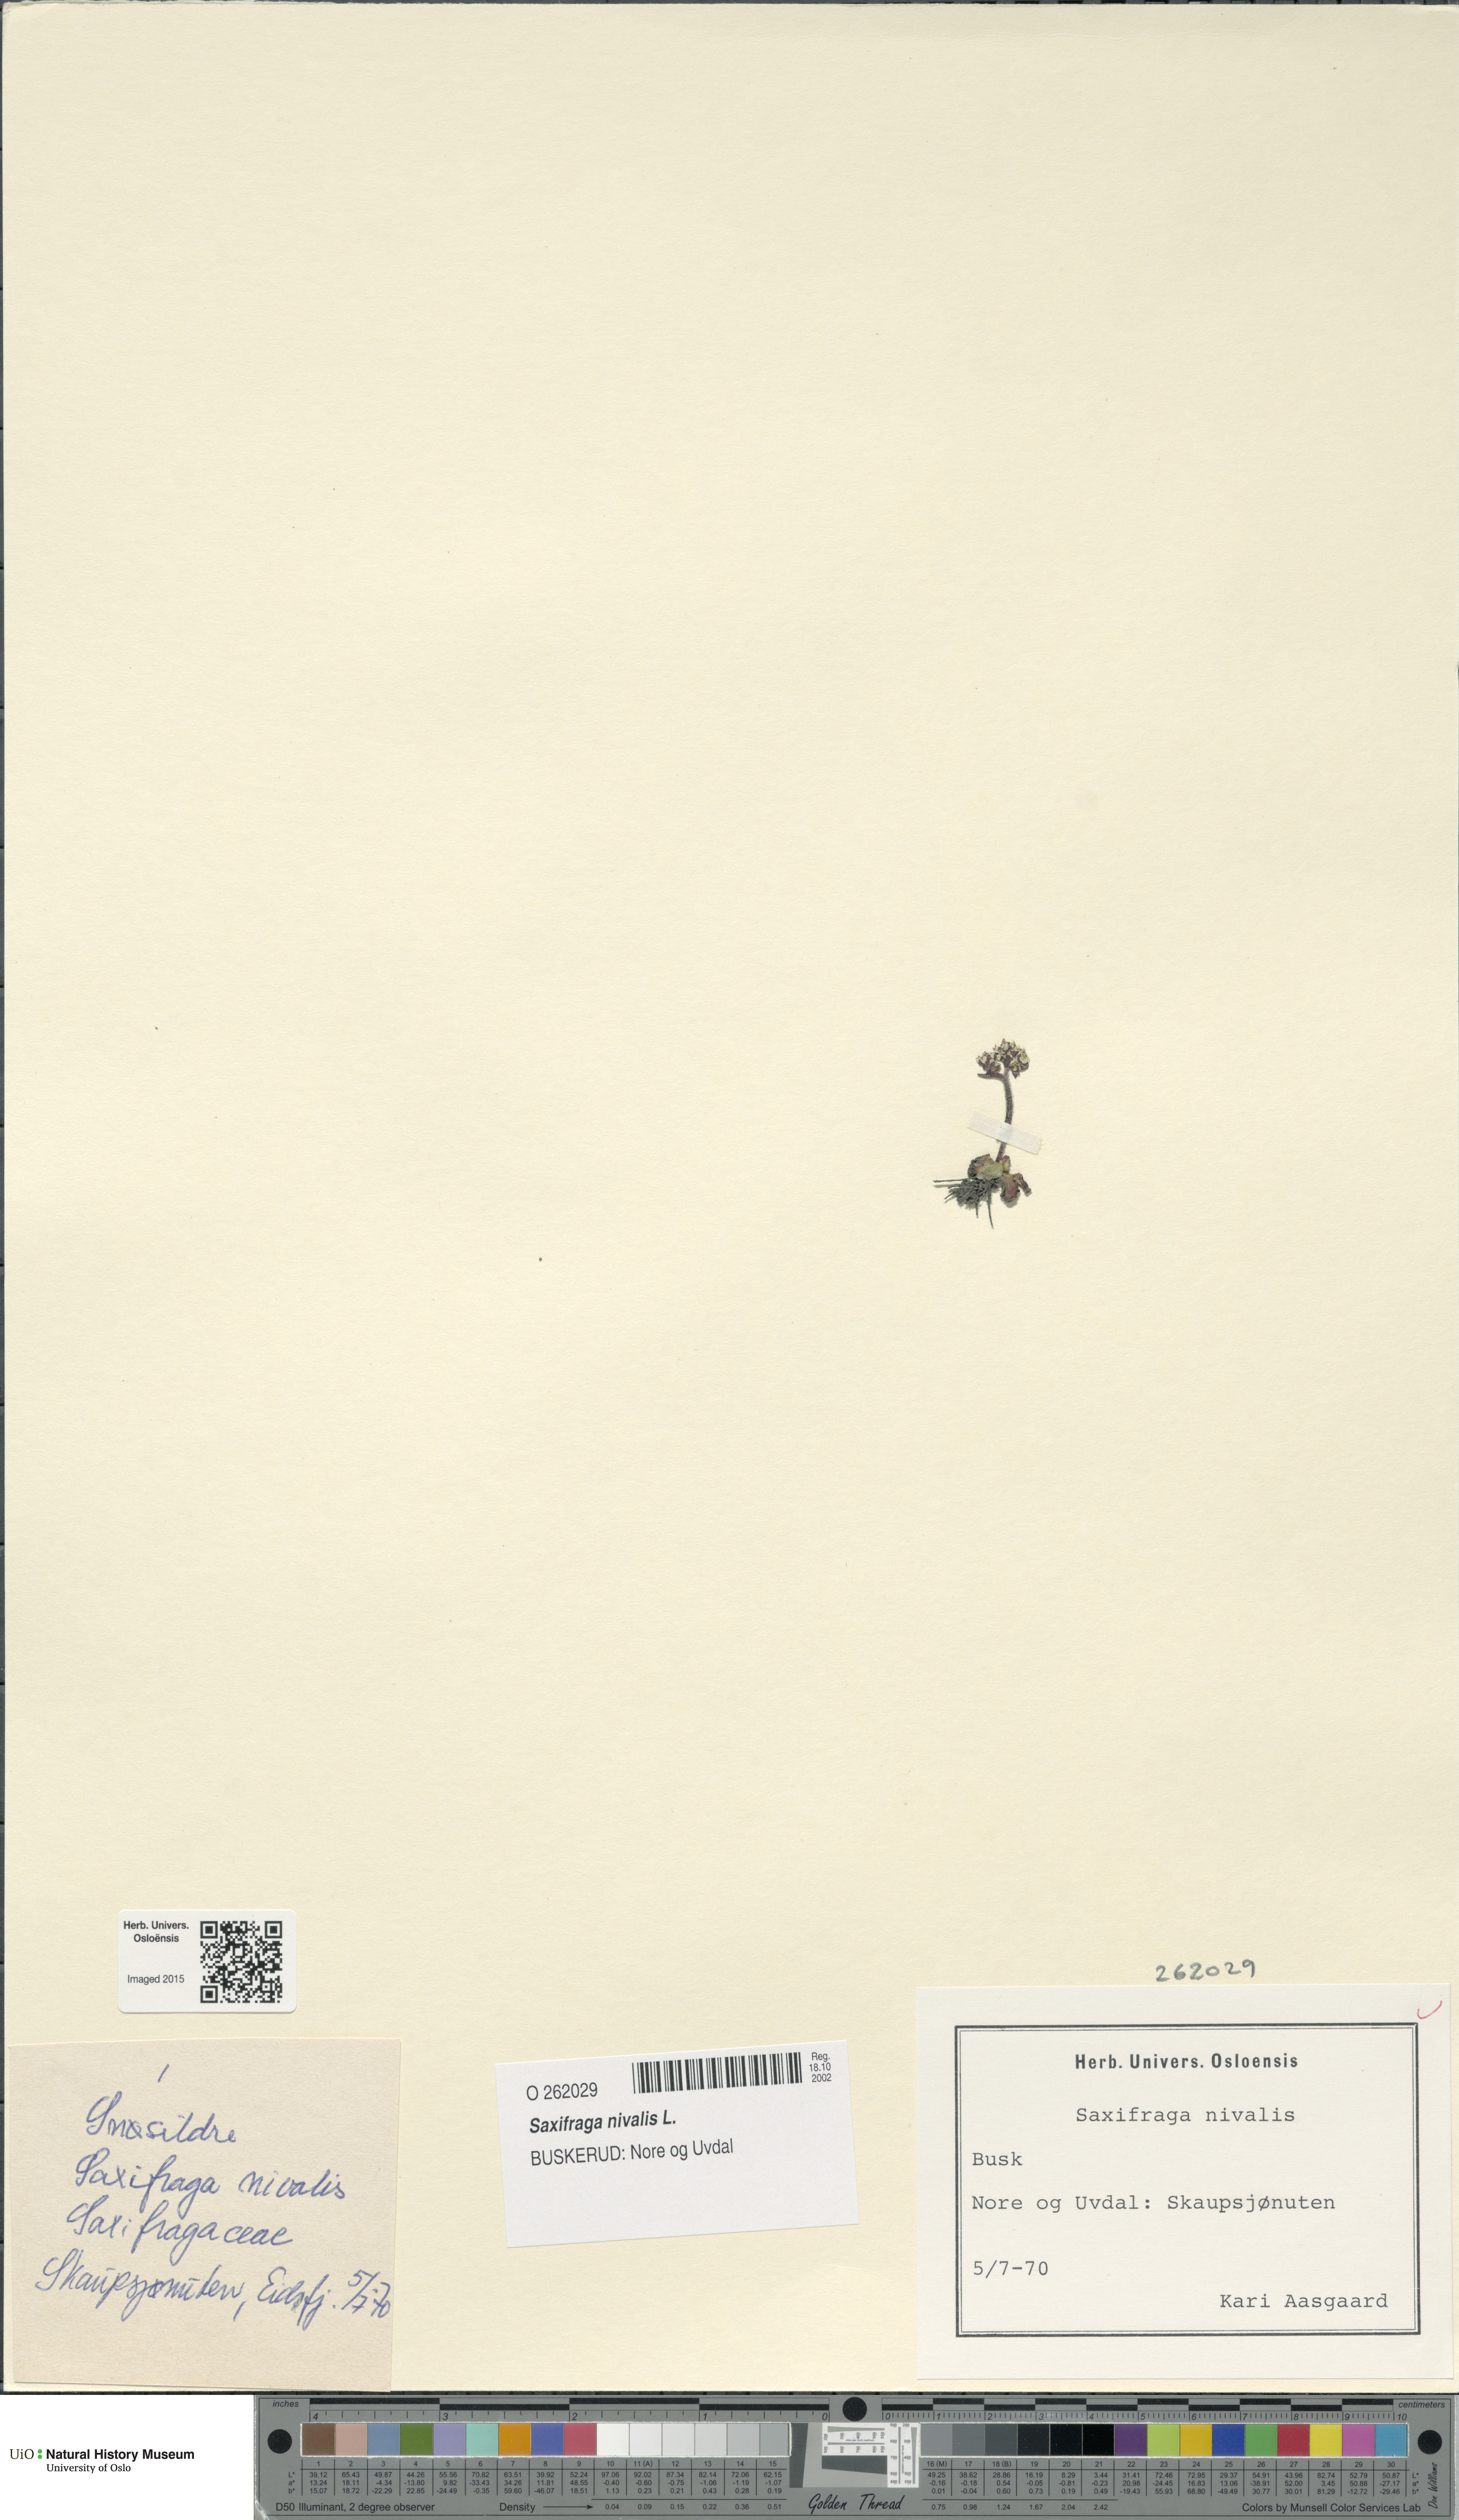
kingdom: Plantae
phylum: Tracheophyta
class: Magnoliopsida
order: Saxifragales
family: Saxifragaceae
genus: Micranthes
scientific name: Micranthes nivalis
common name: Alpine saxifrage
